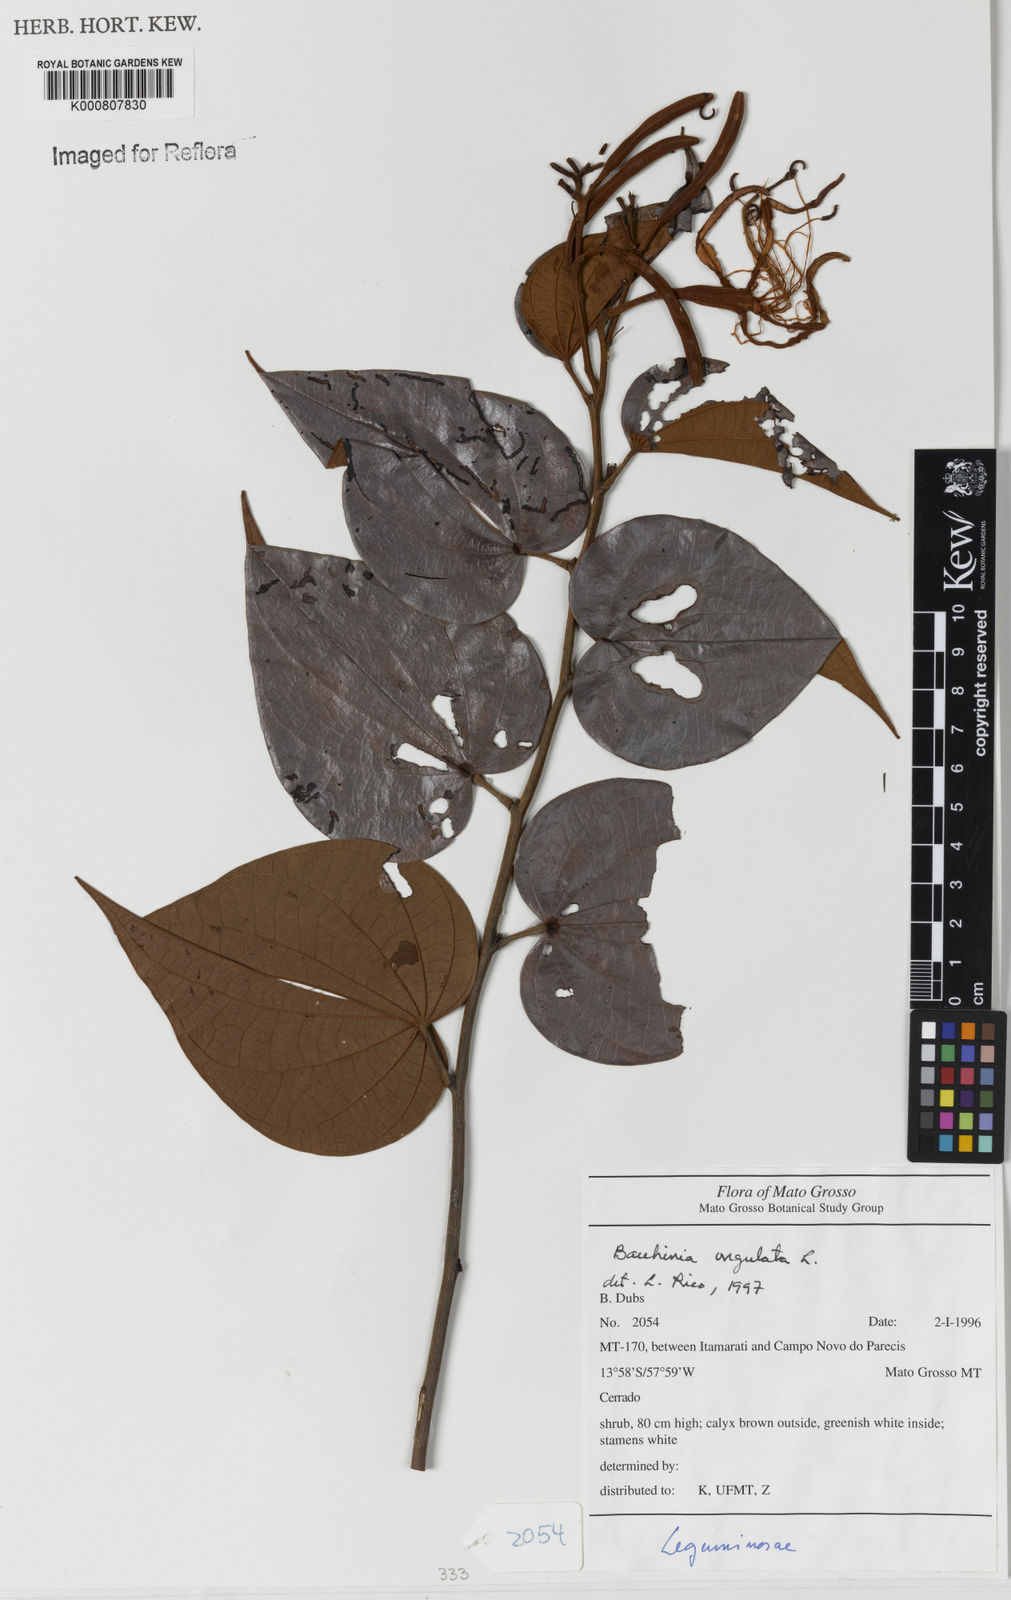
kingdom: Plantae
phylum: Tracheophyta
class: Magnoliopsida
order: Fabales
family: Fabaceae
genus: Bauhinia
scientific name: Bauhinia ungulata
